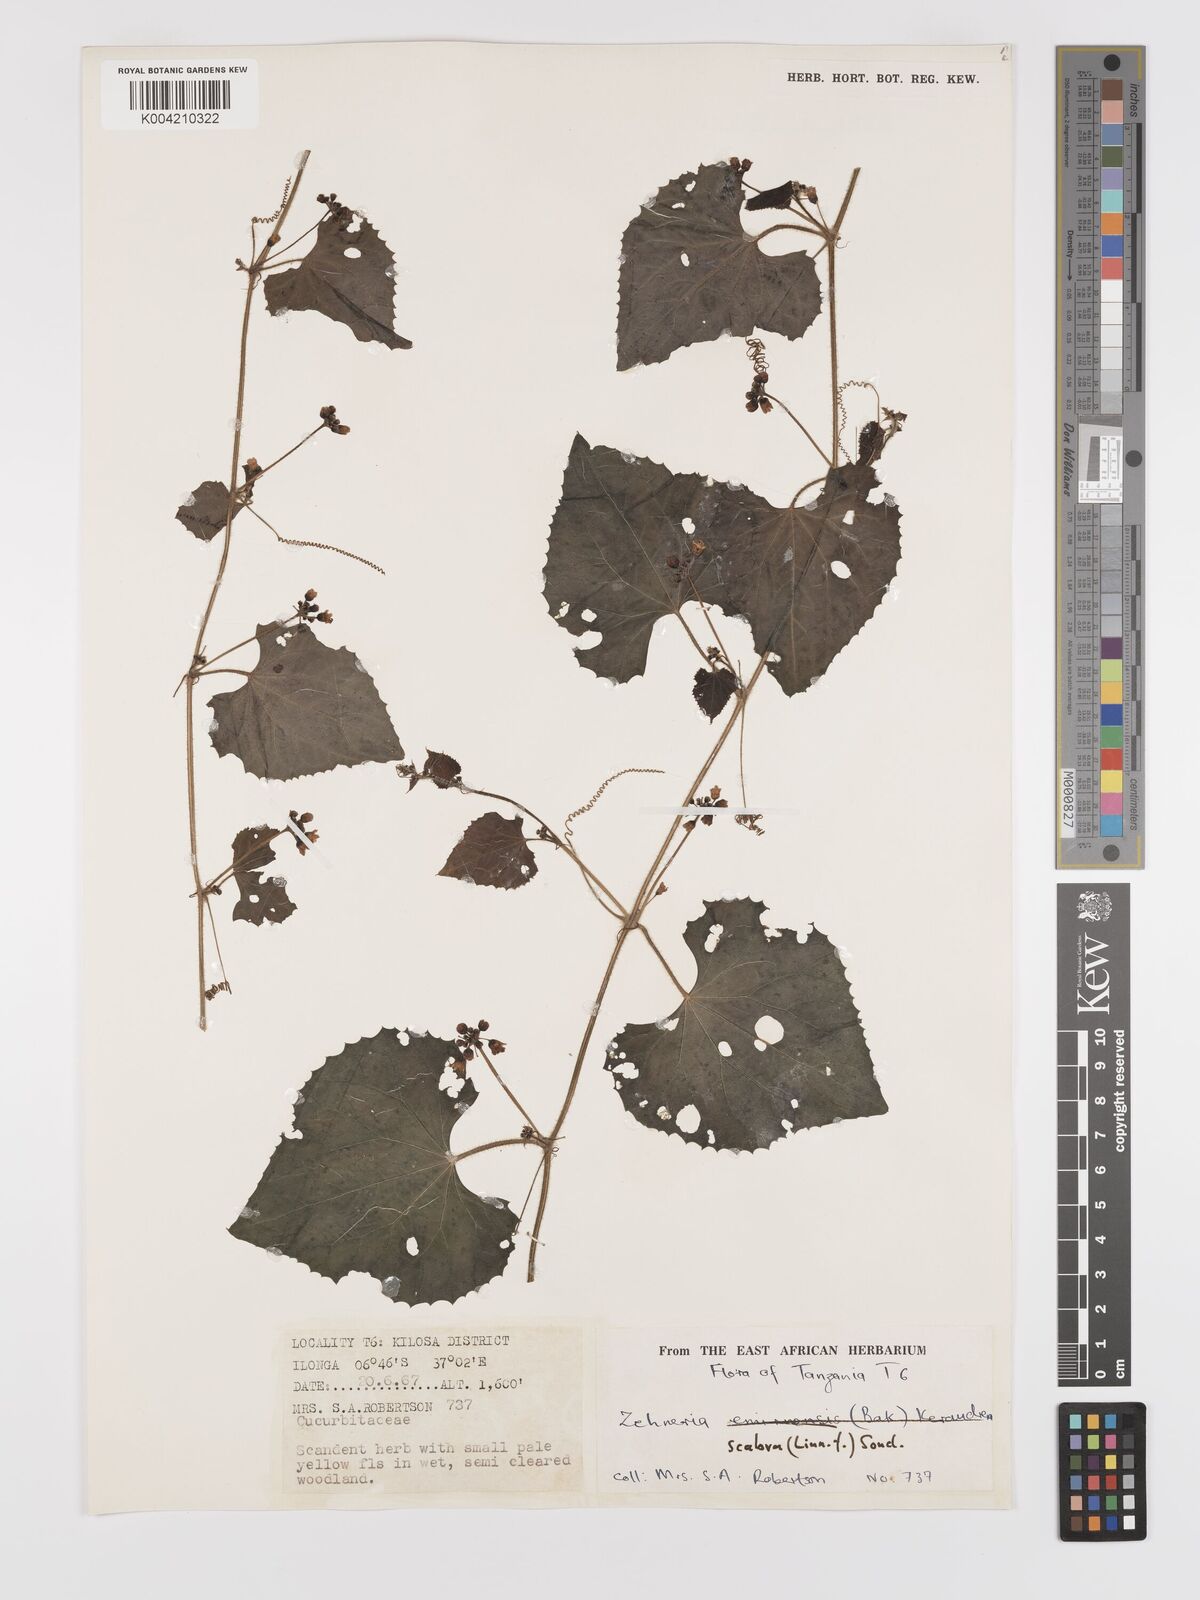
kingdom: Plantae
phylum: Tracheophyta
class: Magnoliopsida
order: Cucurbitales
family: Cucurbitaceae
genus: Zehneria
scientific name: Zehneria scabra
